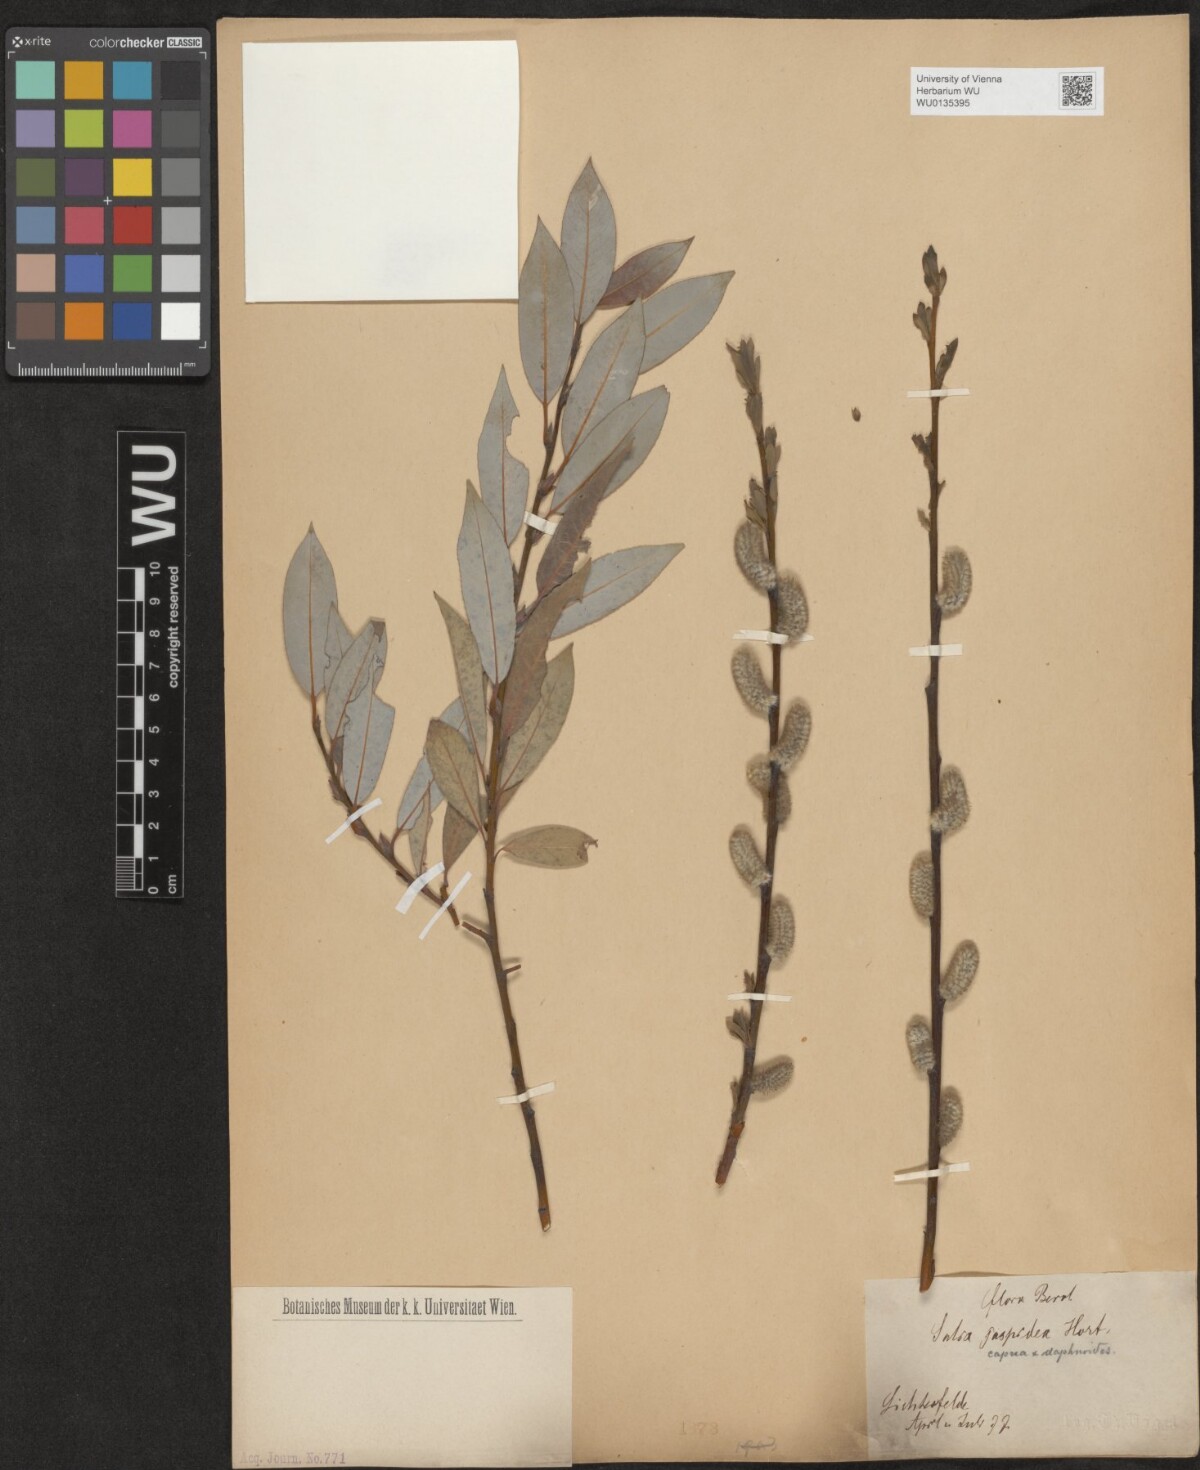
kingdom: Plantae
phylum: Tracheophyta
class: Magnoliopsida
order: Malpighiales
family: Salicaceae
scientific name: Salicaceae
